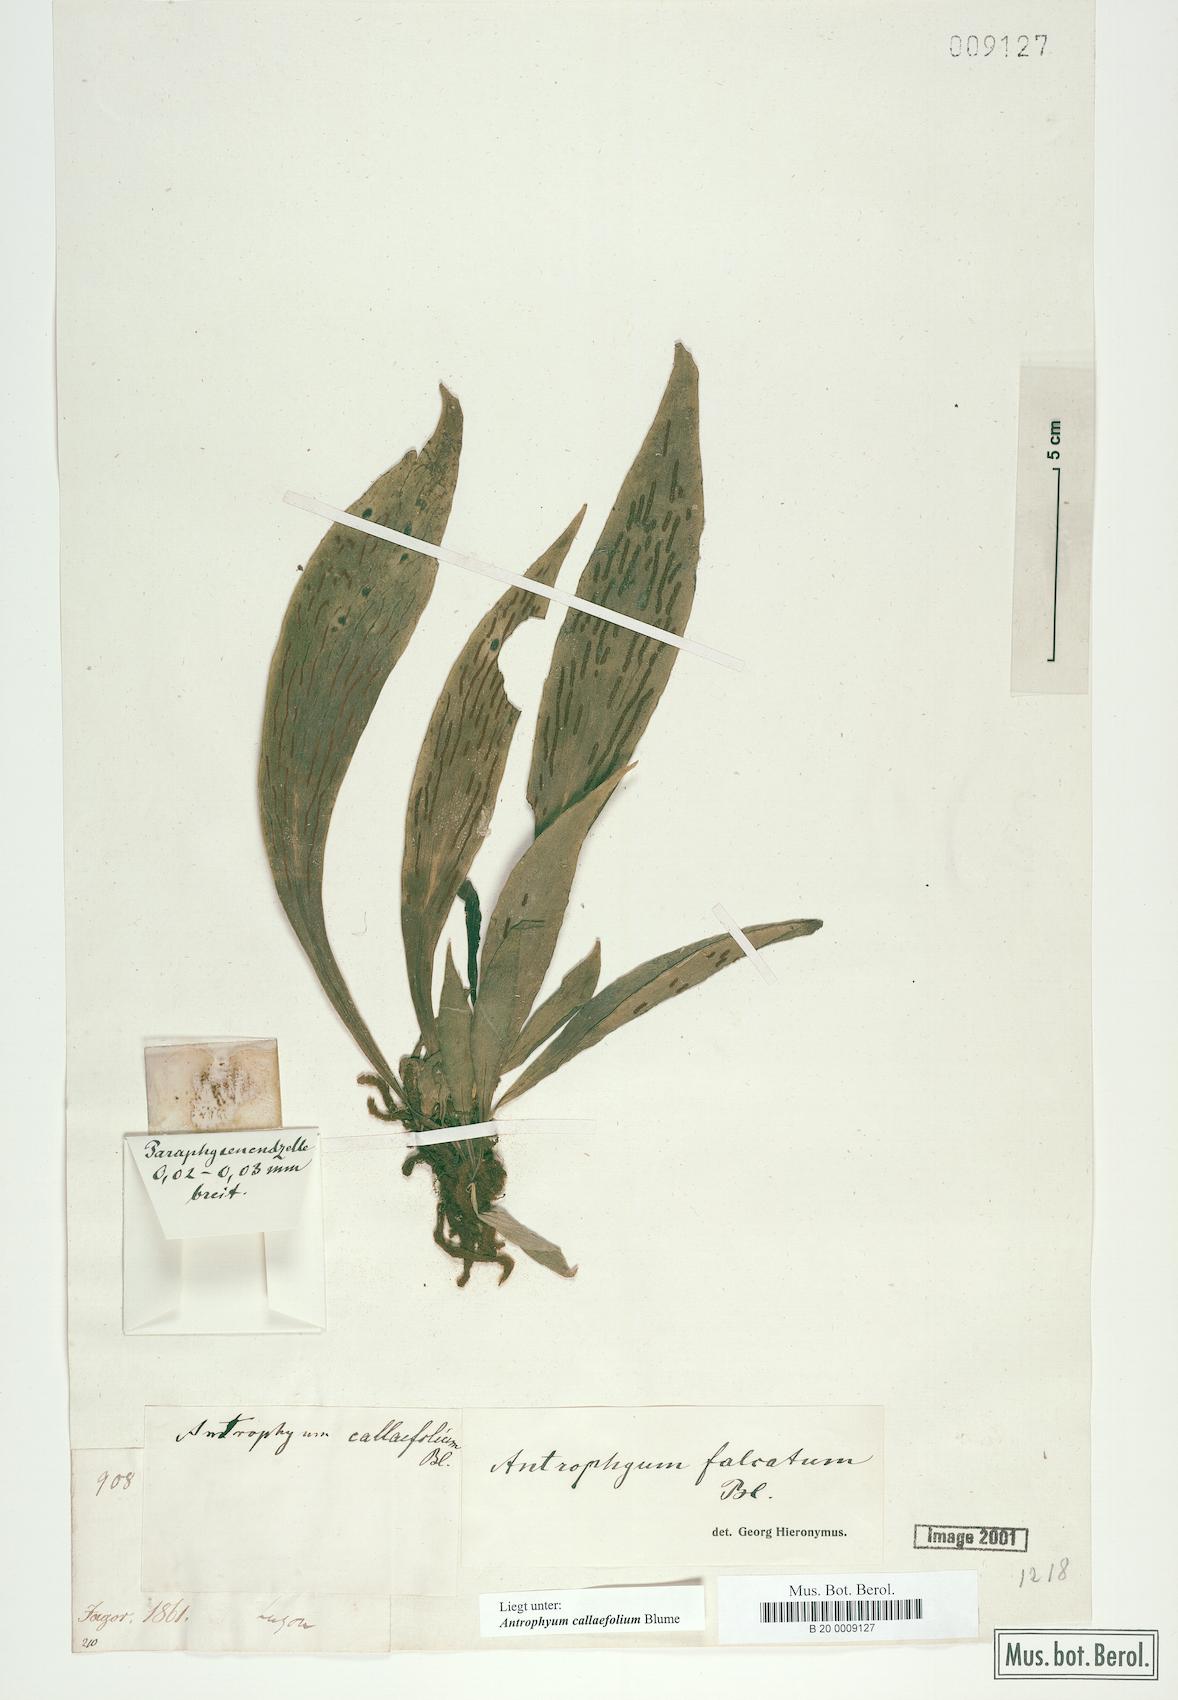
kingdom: Plantae
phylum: Tracheophyta
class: Polypodiopsida
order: Polypodiales
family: Pteridaceae
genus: Antrophyum
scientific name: Antrophyum callifolium
